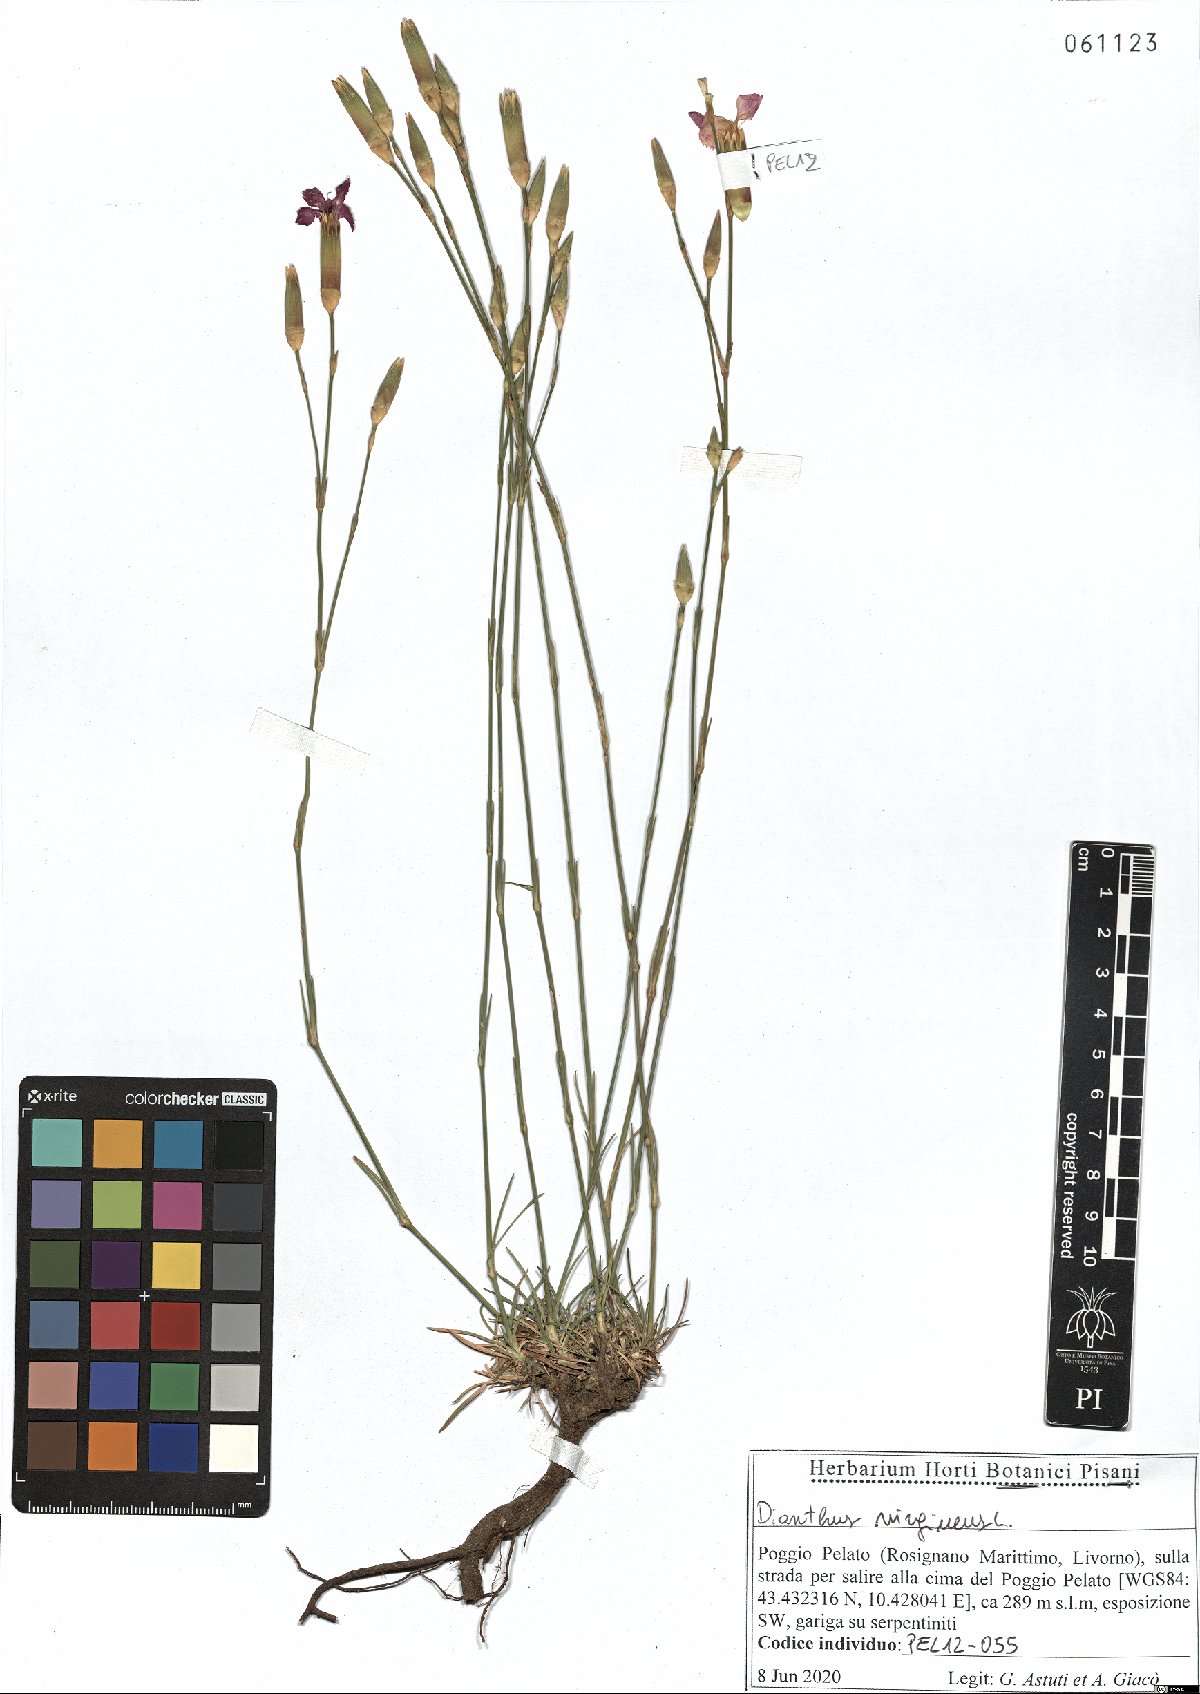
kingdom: Plantae
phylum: Tracheophyta
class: Magnoliopsida
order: Caryophyllales
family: Caryophyllaceae
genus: Dianthus
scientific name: Dianthus virgineus
